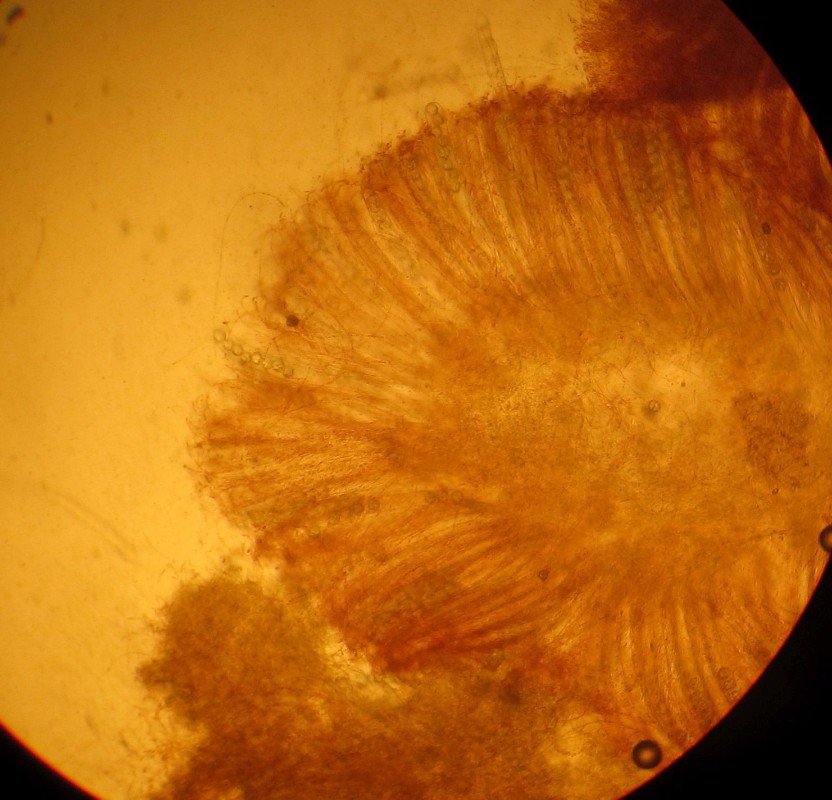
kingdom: Fungi
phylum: Ascomycota
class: Pezizomycetes
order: Pezizales
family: Pulvinulaceae
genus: Pulvinula
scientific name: Pulvinula convexella
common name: stor pudebæger
